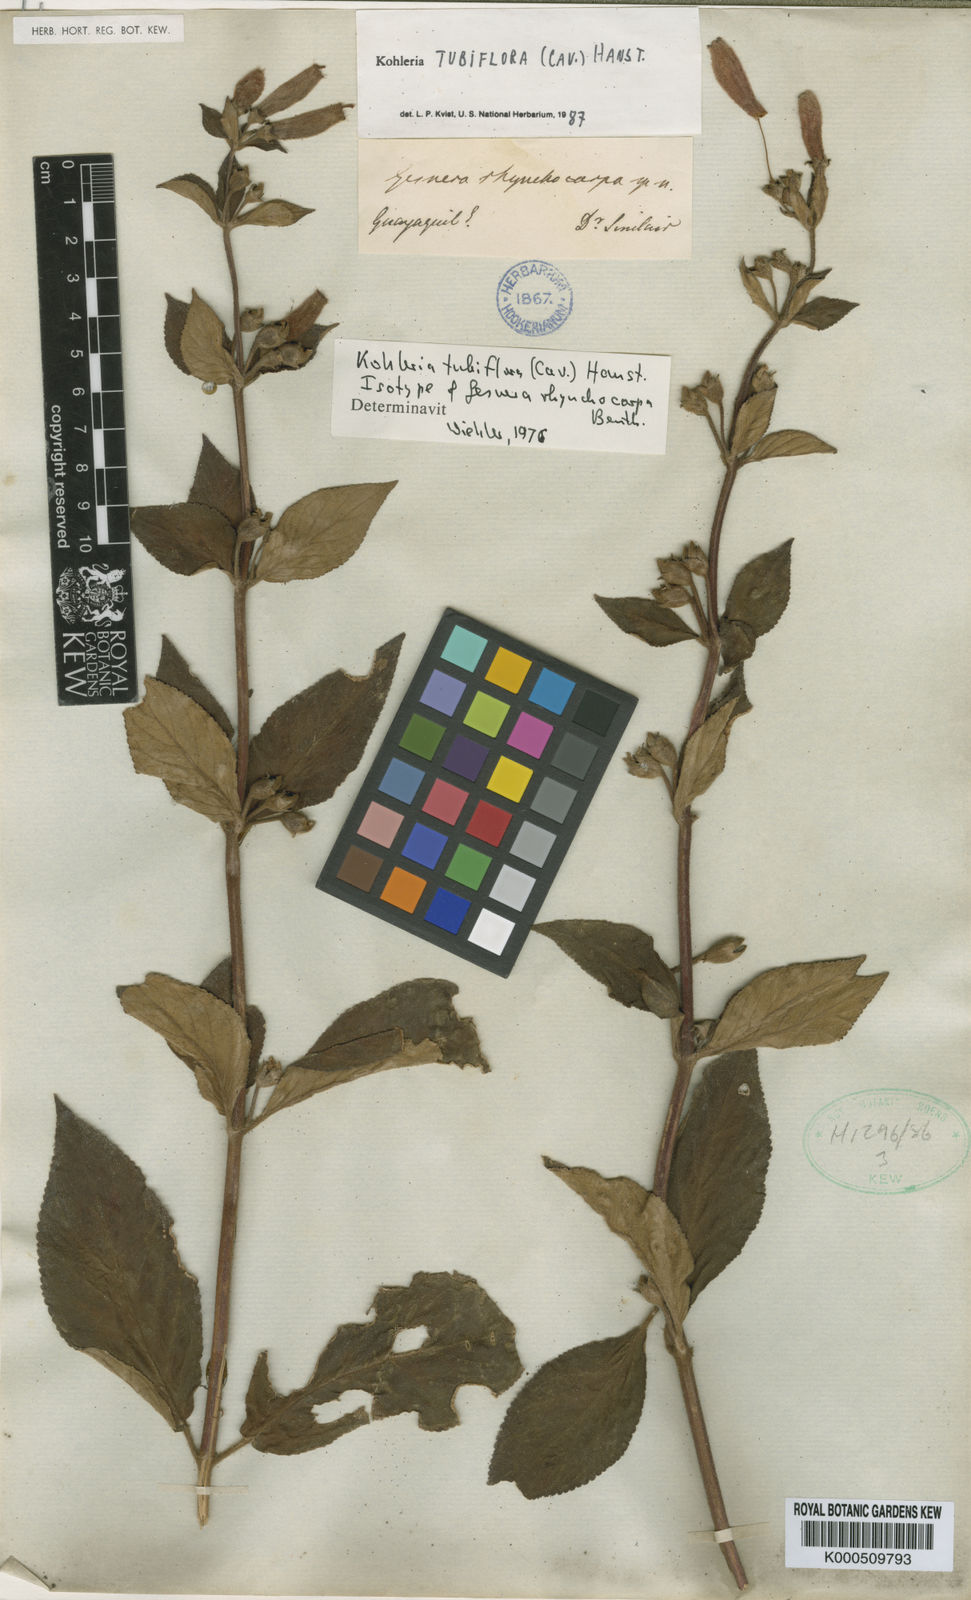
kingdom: Plantae
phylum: Tracheophyta
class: Magnoliopsida
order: Lamiales
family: Gesneriaceae
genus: Kohleria
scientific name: Kohleria tubiflora
